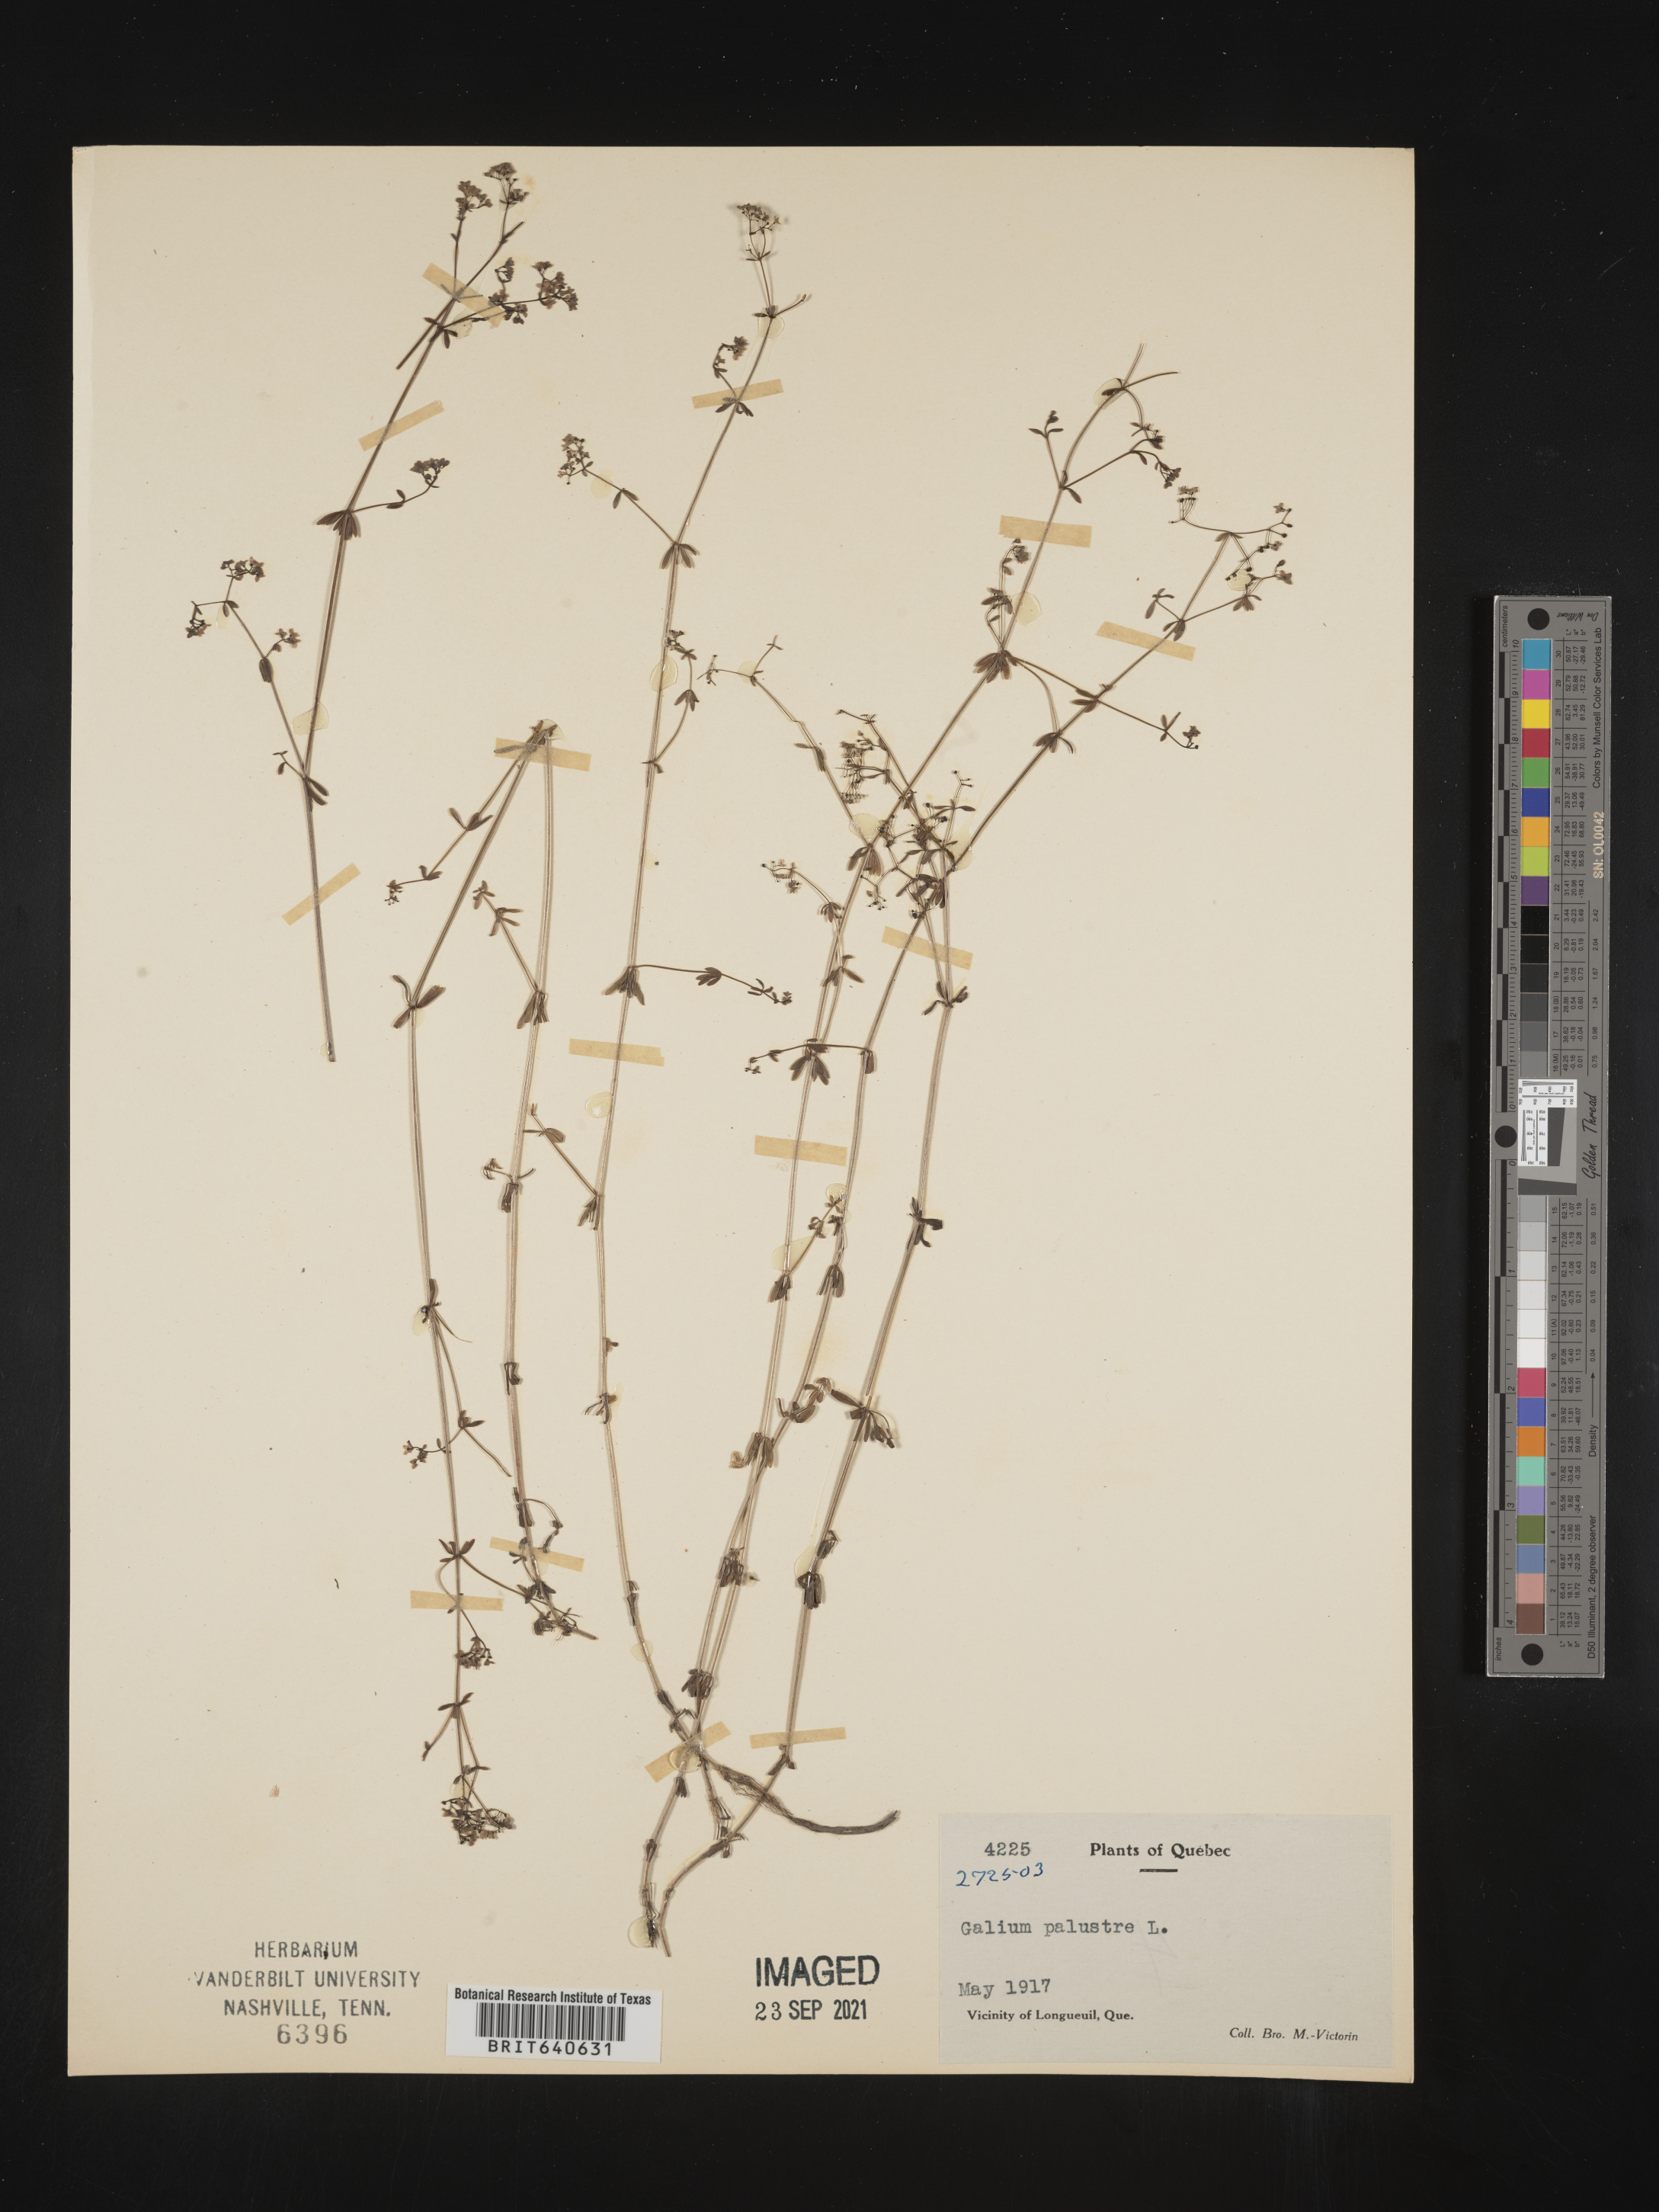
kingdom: Plantae
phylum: Tracheophyta
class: Magnoliopsida
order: Gentianales
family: Rubiaceae
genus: Galium
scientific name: Galium
